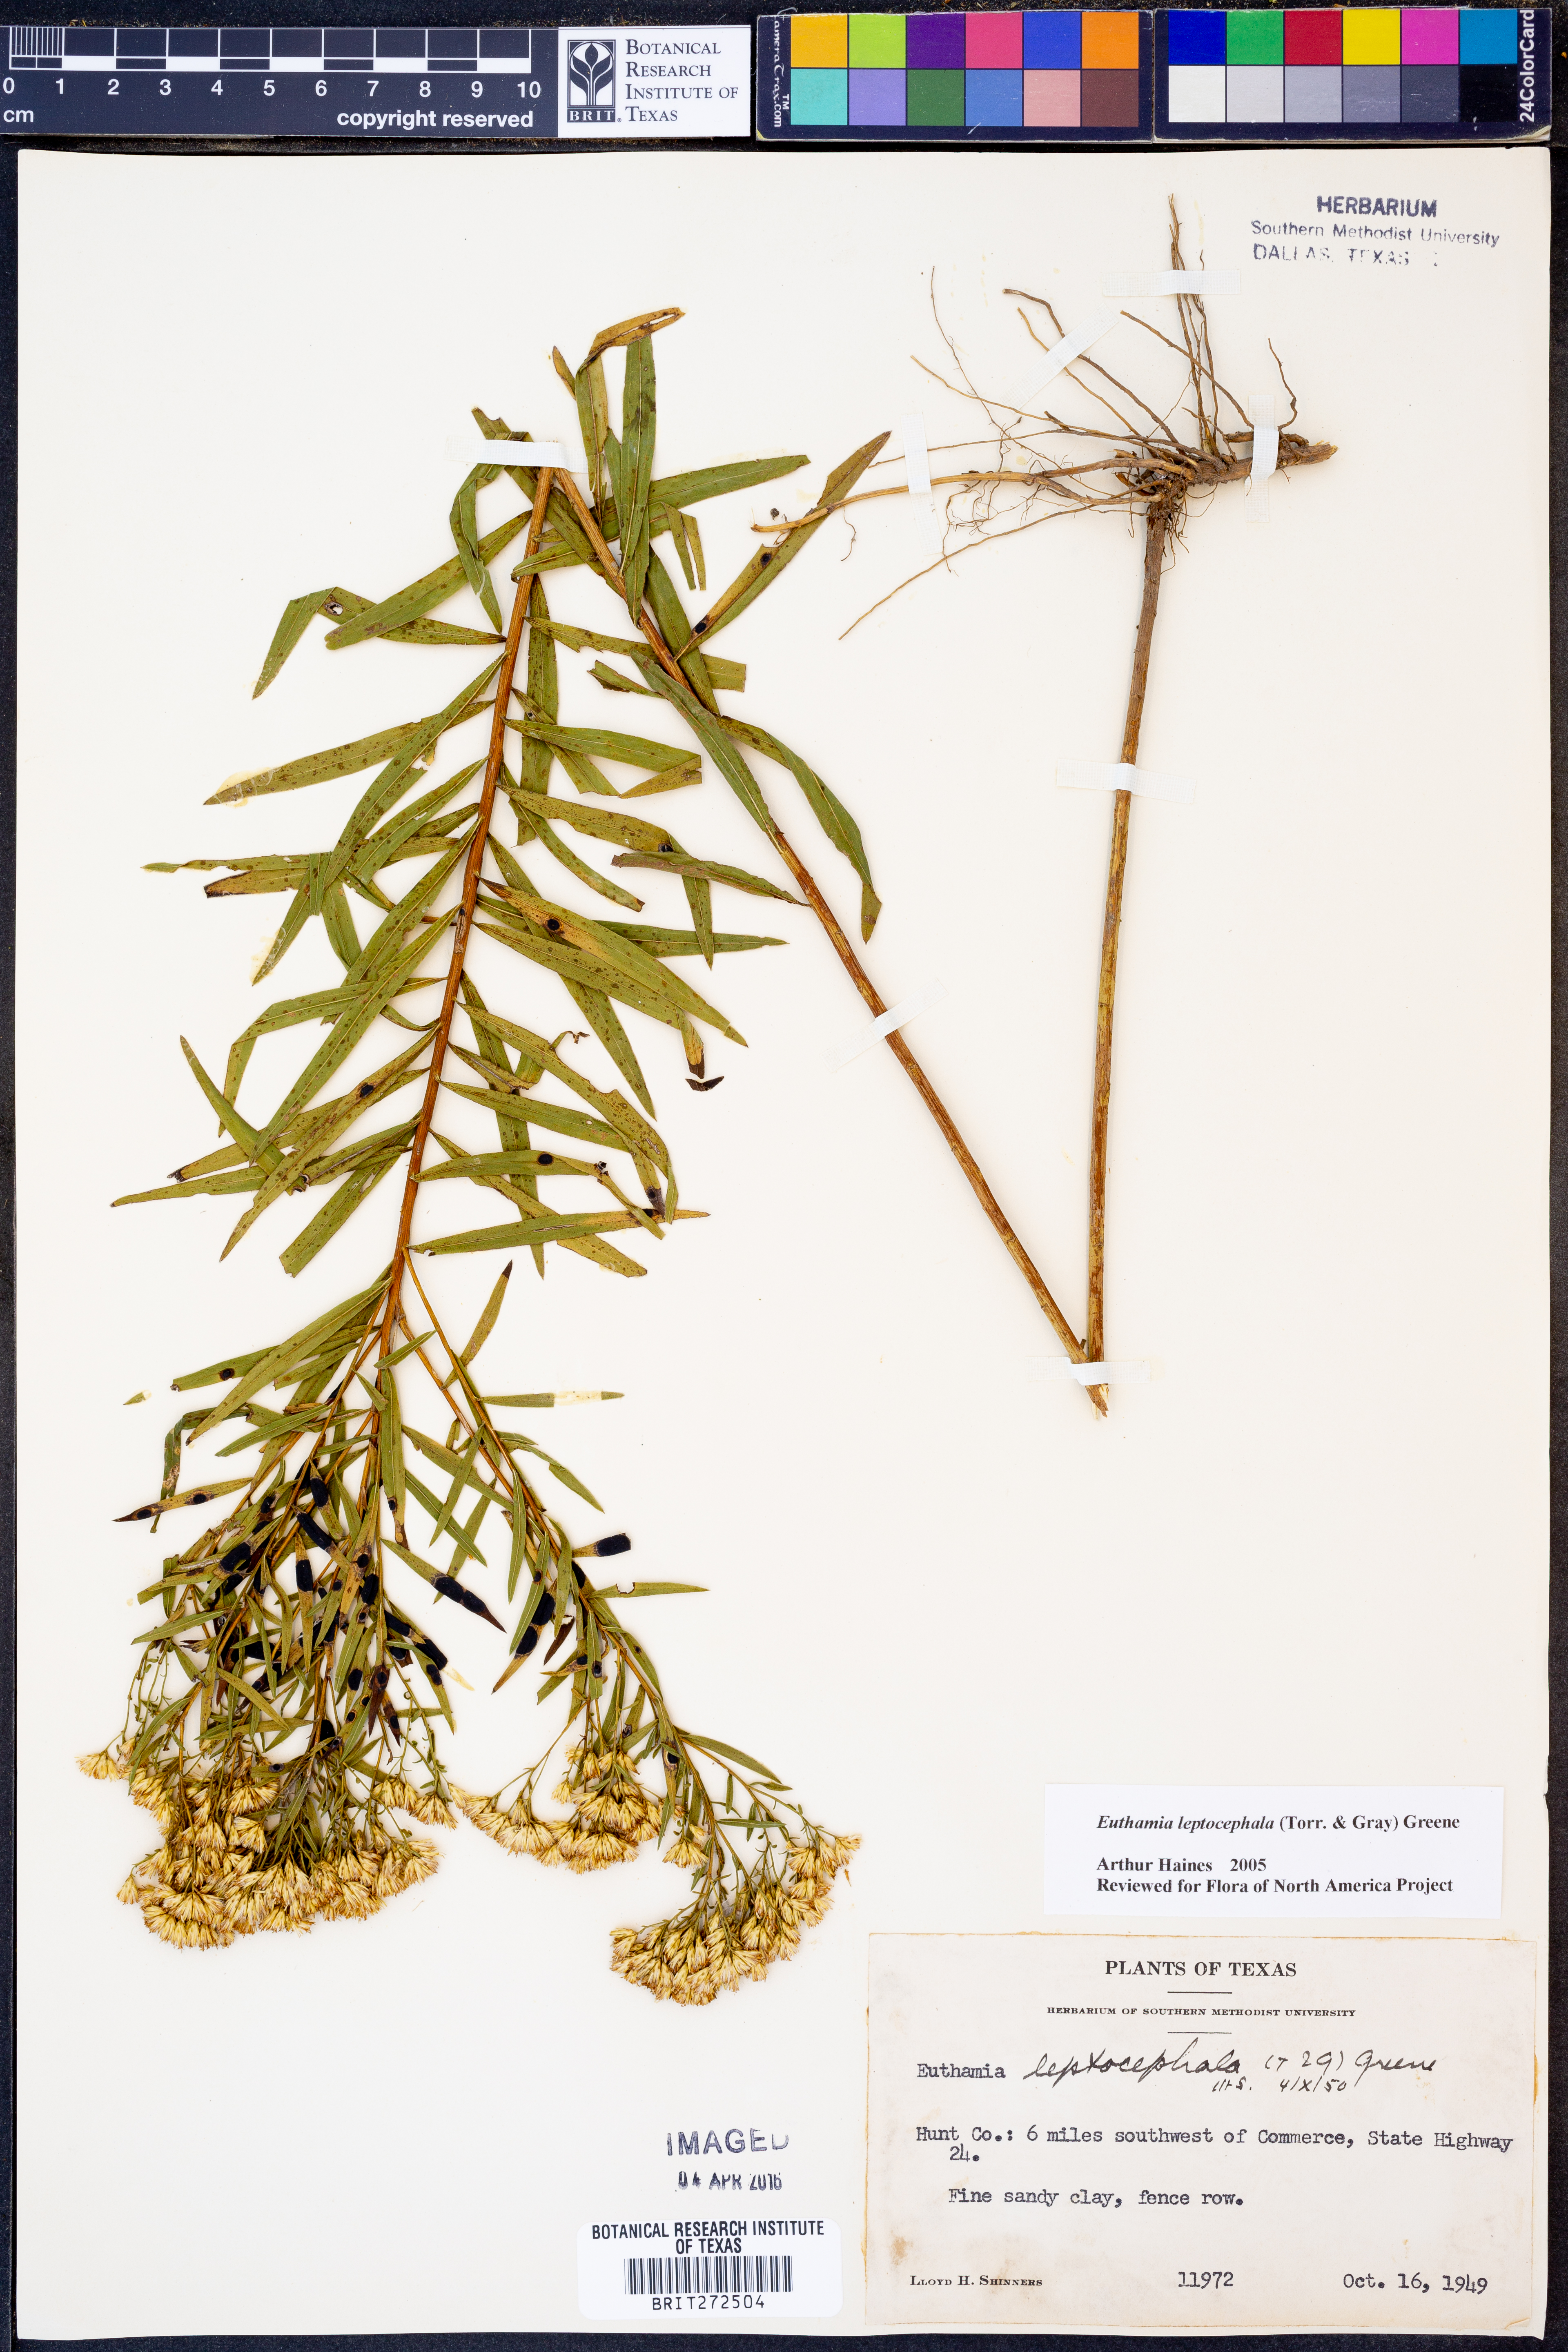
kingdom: Plantae
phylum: Tracheophyta
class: Magnoliopsida
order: Asterales
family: Asteraceae
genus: Euthamia
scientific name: Euthamia leptocephala
